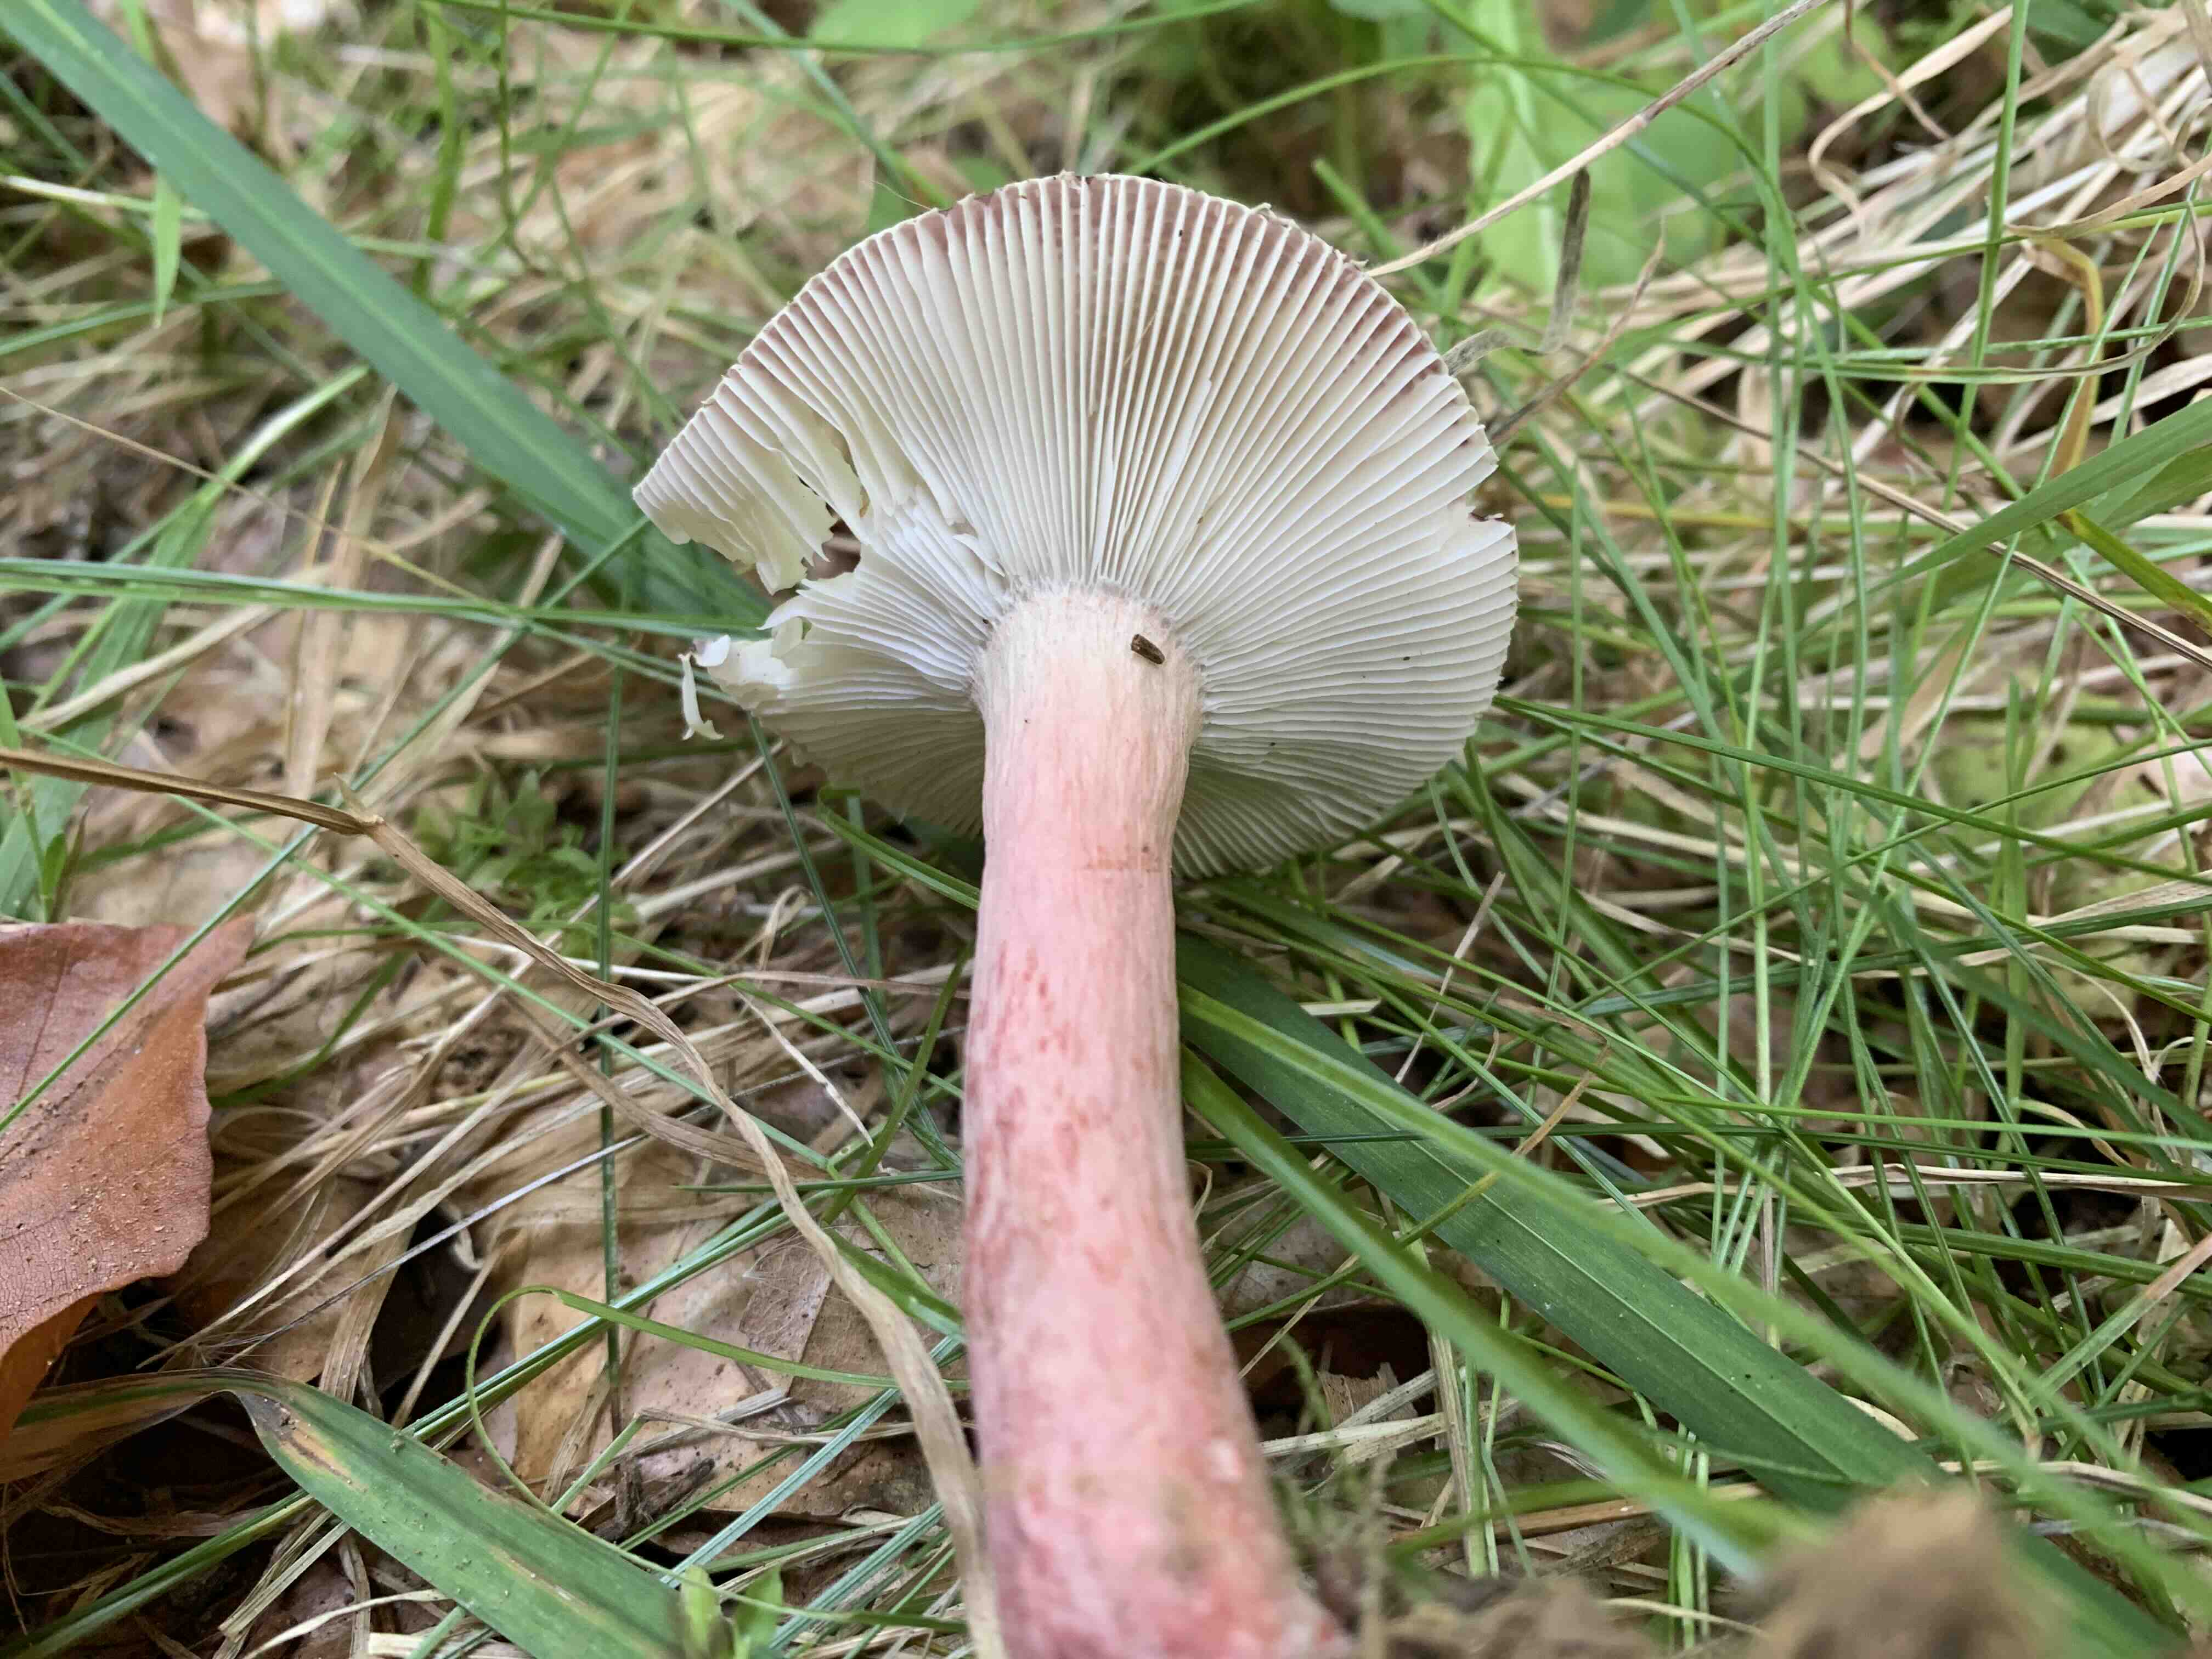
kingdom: Fungi
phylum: Basidiomycota
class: Agaricomycetes
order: Russulales
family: Russulaceae
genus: Russula
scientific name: Russula queletii
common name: Quélets skørhat
